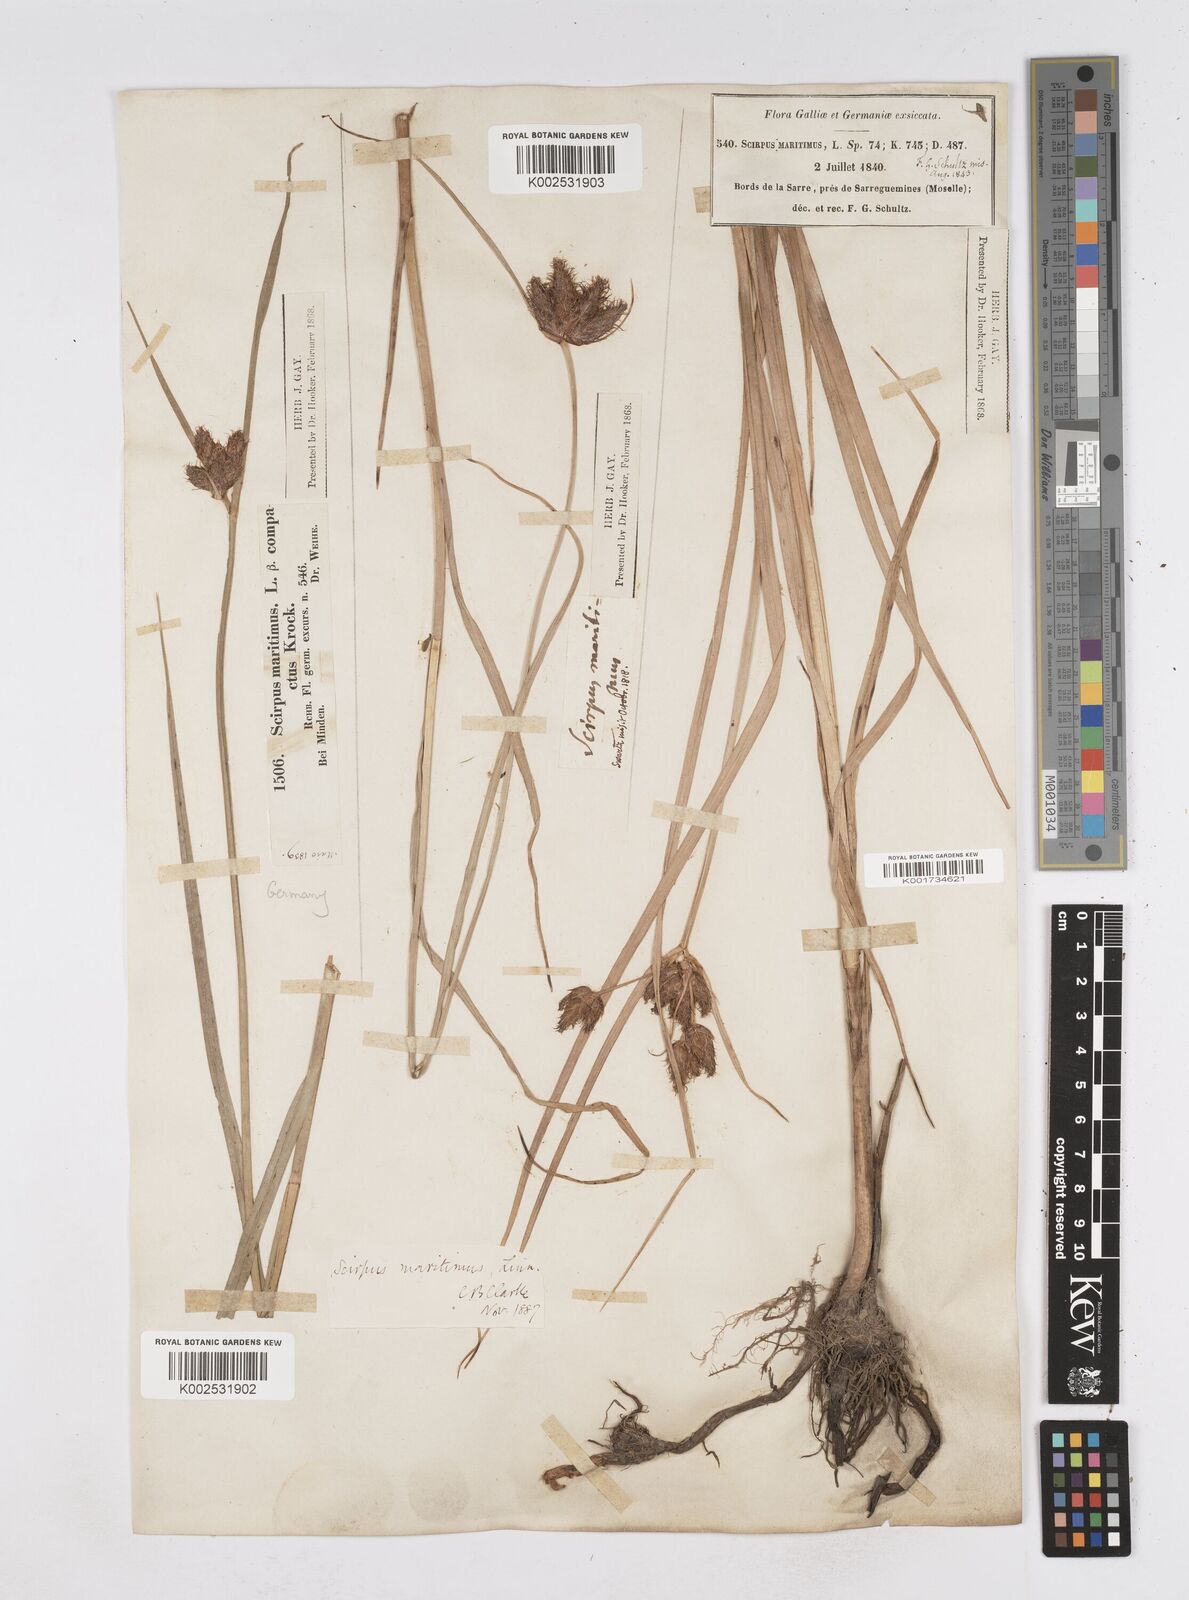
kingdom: Plantae
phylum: Tracheophyta
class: Liliopsida
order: Poales
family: Cyperaceae
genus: Bolboschoenus
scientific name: Bolboschoenus maritimus
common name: Sea club-rush
